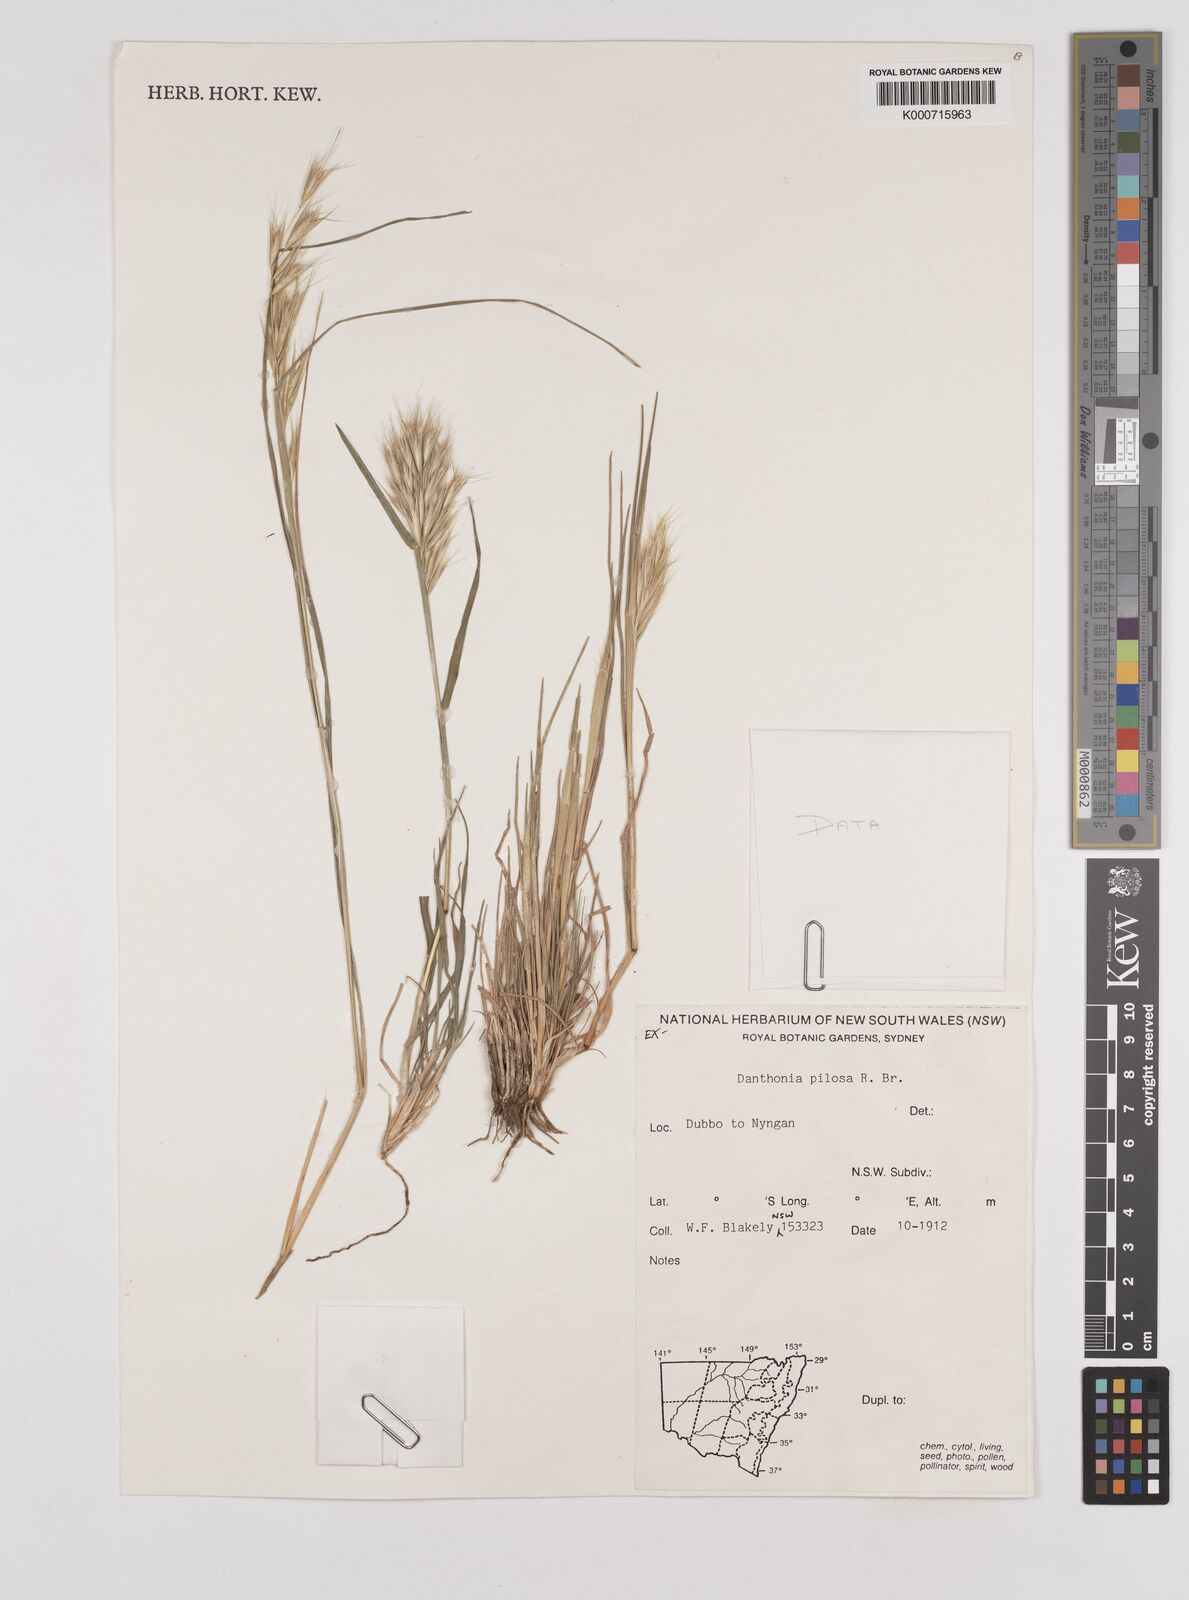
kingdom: Plantae
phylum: Tracheophyta
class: Liliopsida
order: Poales
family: Poaceae
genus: Rytidosperma
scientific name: Rytidosperma pilosum
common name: Hairy wallaby grass
